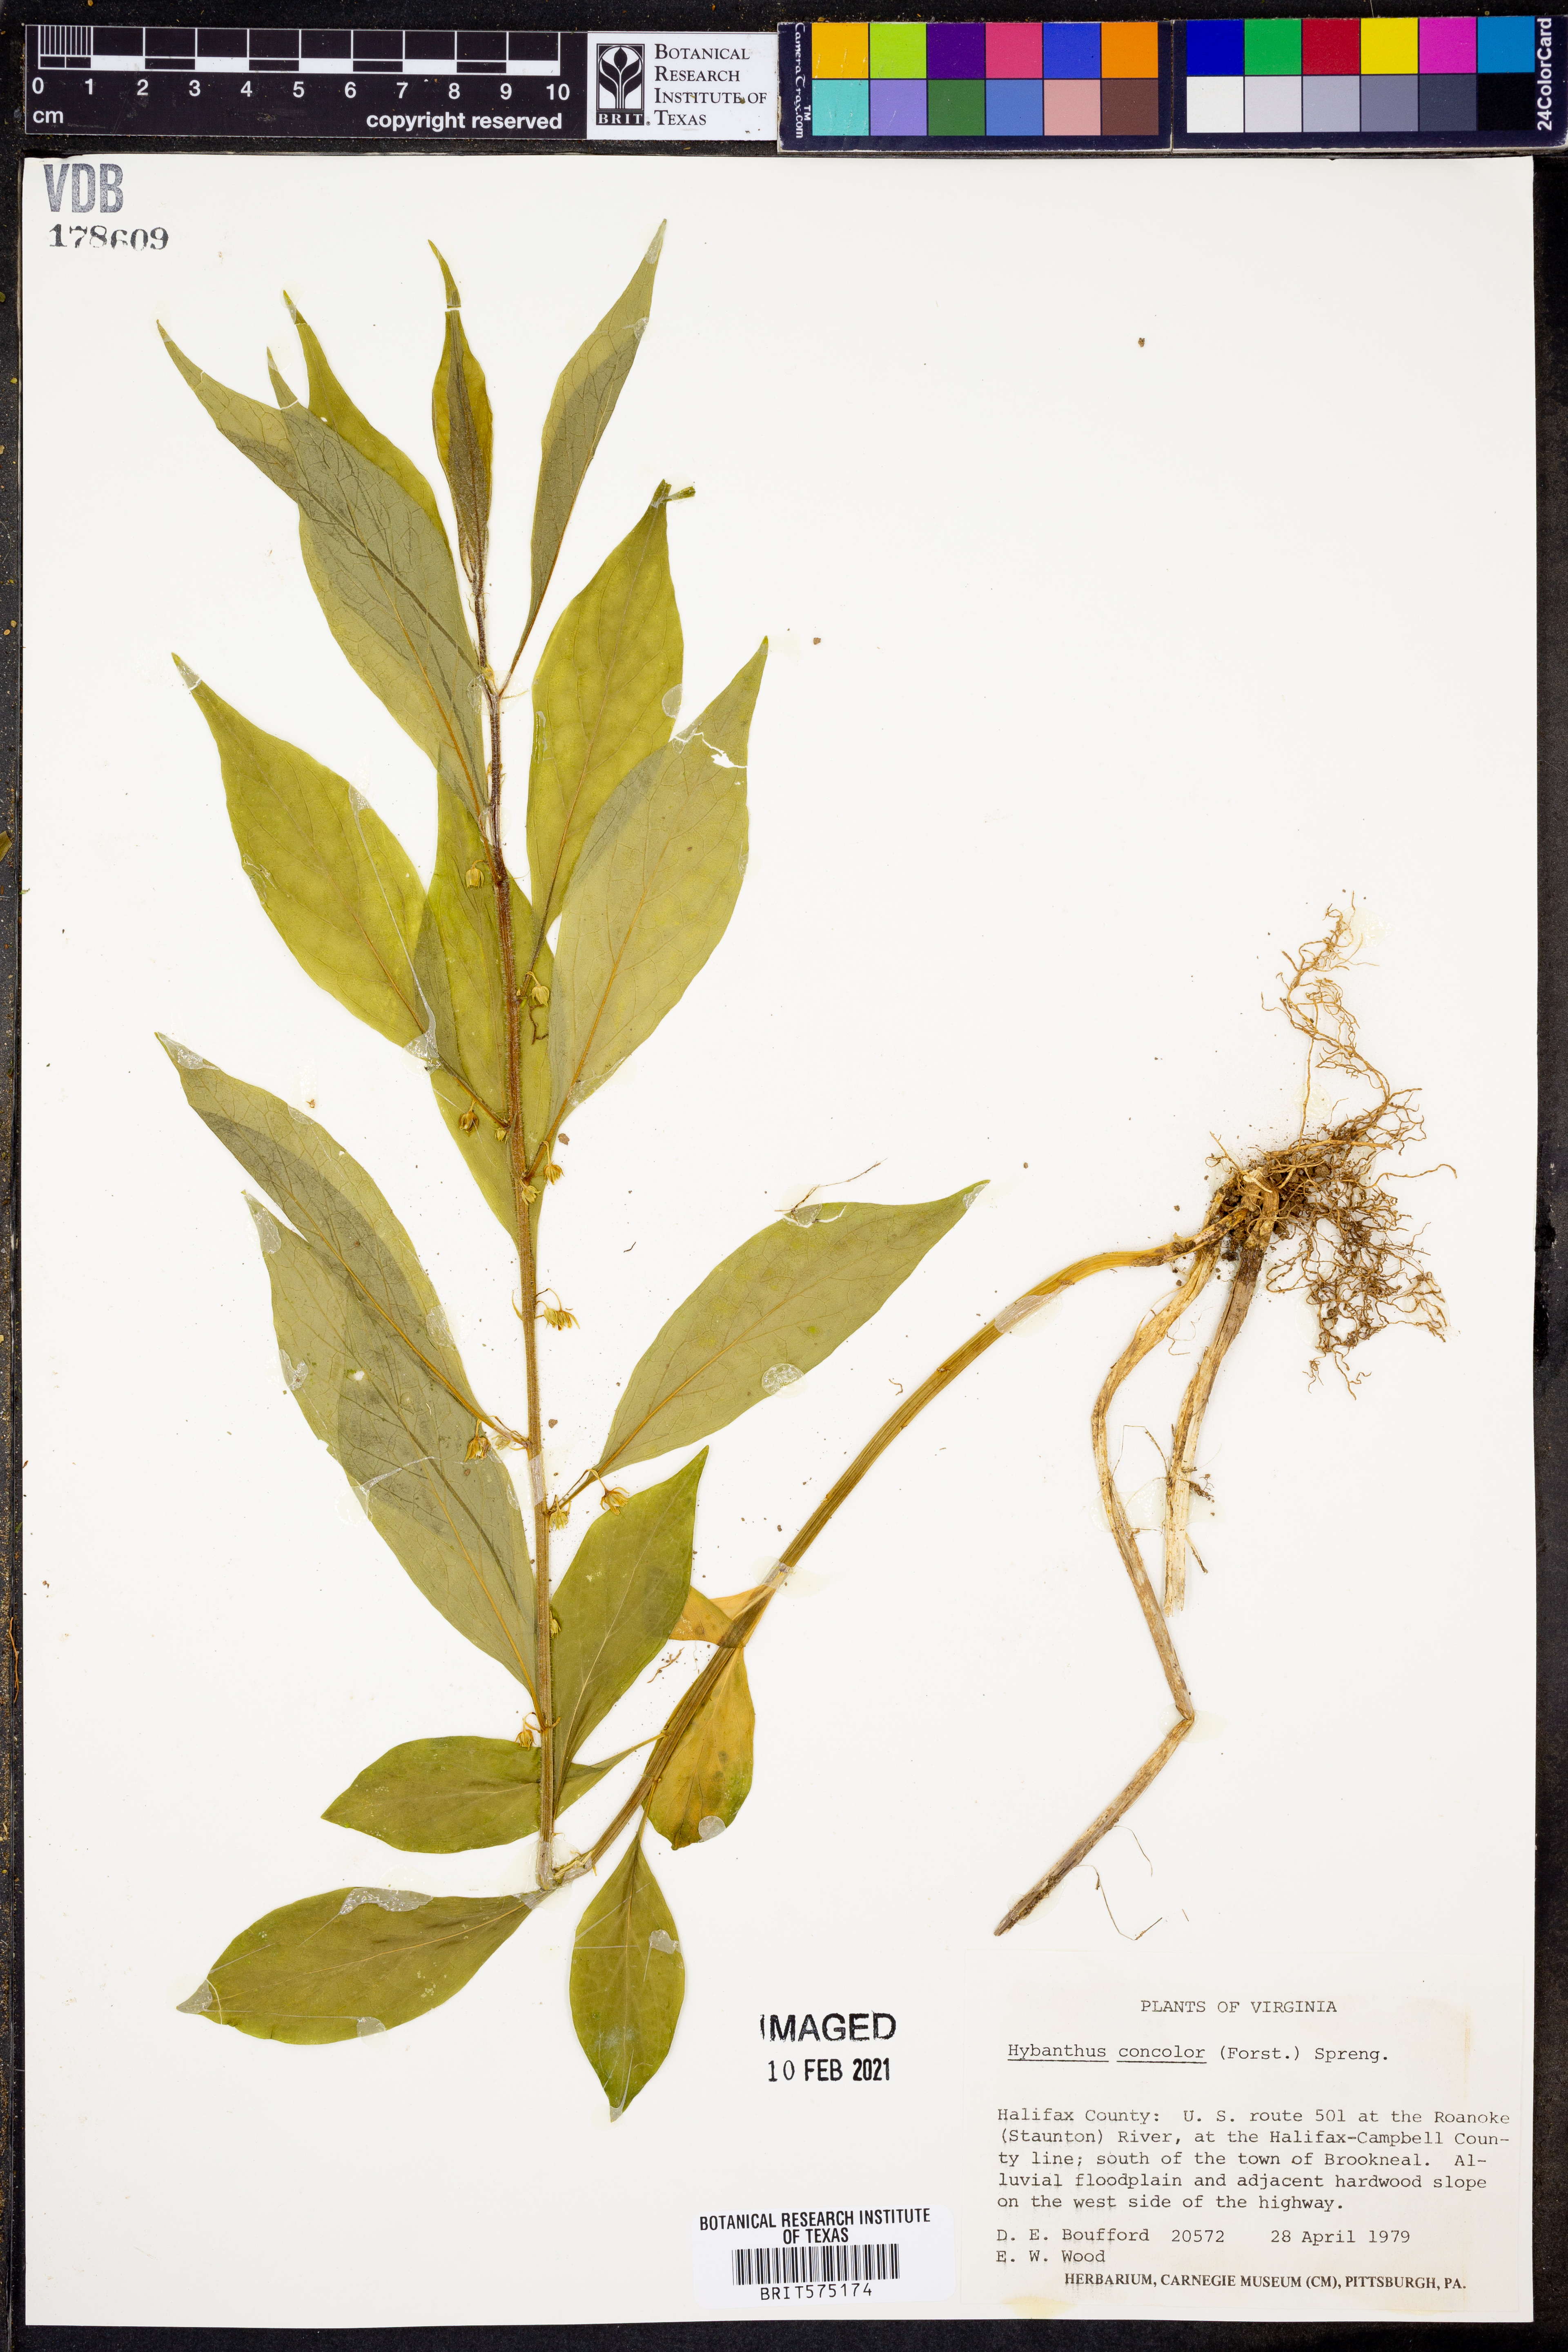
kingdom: Plantae
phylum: Tracheophyta
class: Magnoliopsida
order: Malpighiales
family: Violaceae
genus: Cubelium
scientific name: Cubelium concolor
